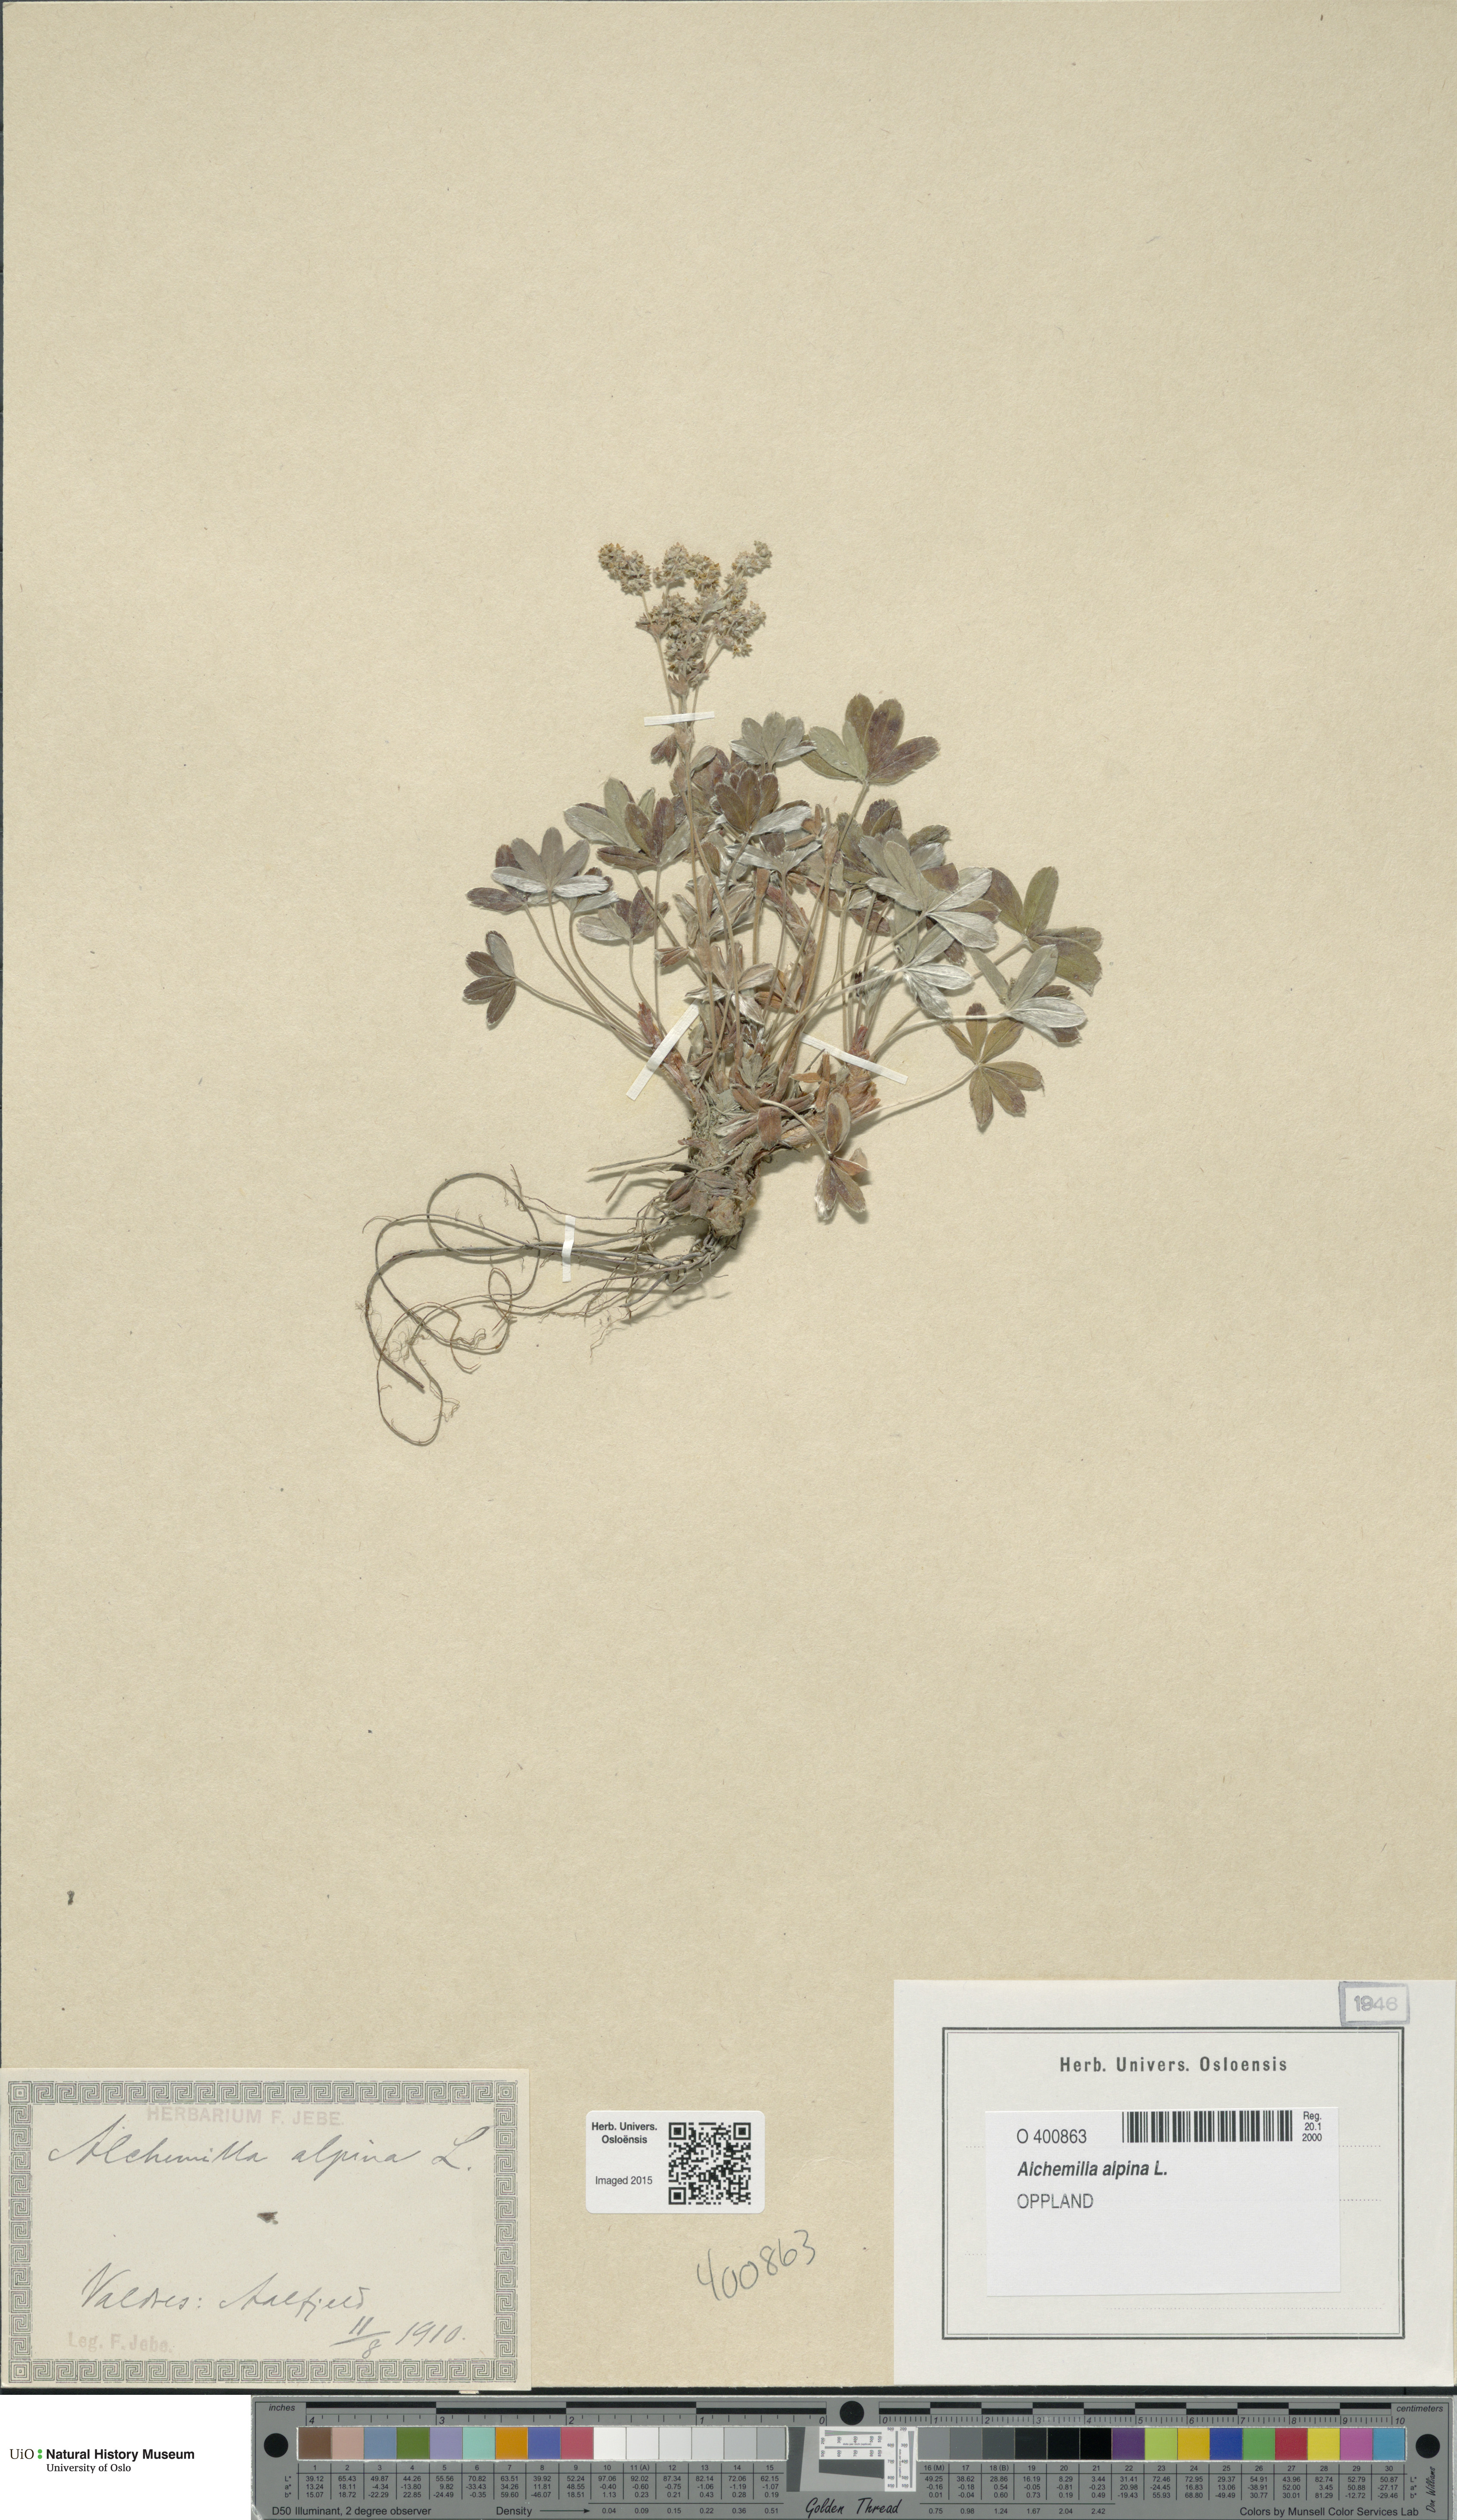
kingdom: Plantae
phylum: Tracheophyta
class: Magnoliopsida
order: Rosales
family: Rosaceae
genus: Alchemilla
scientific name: Alchemilla alpina
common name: Alpine lady's-mantle
